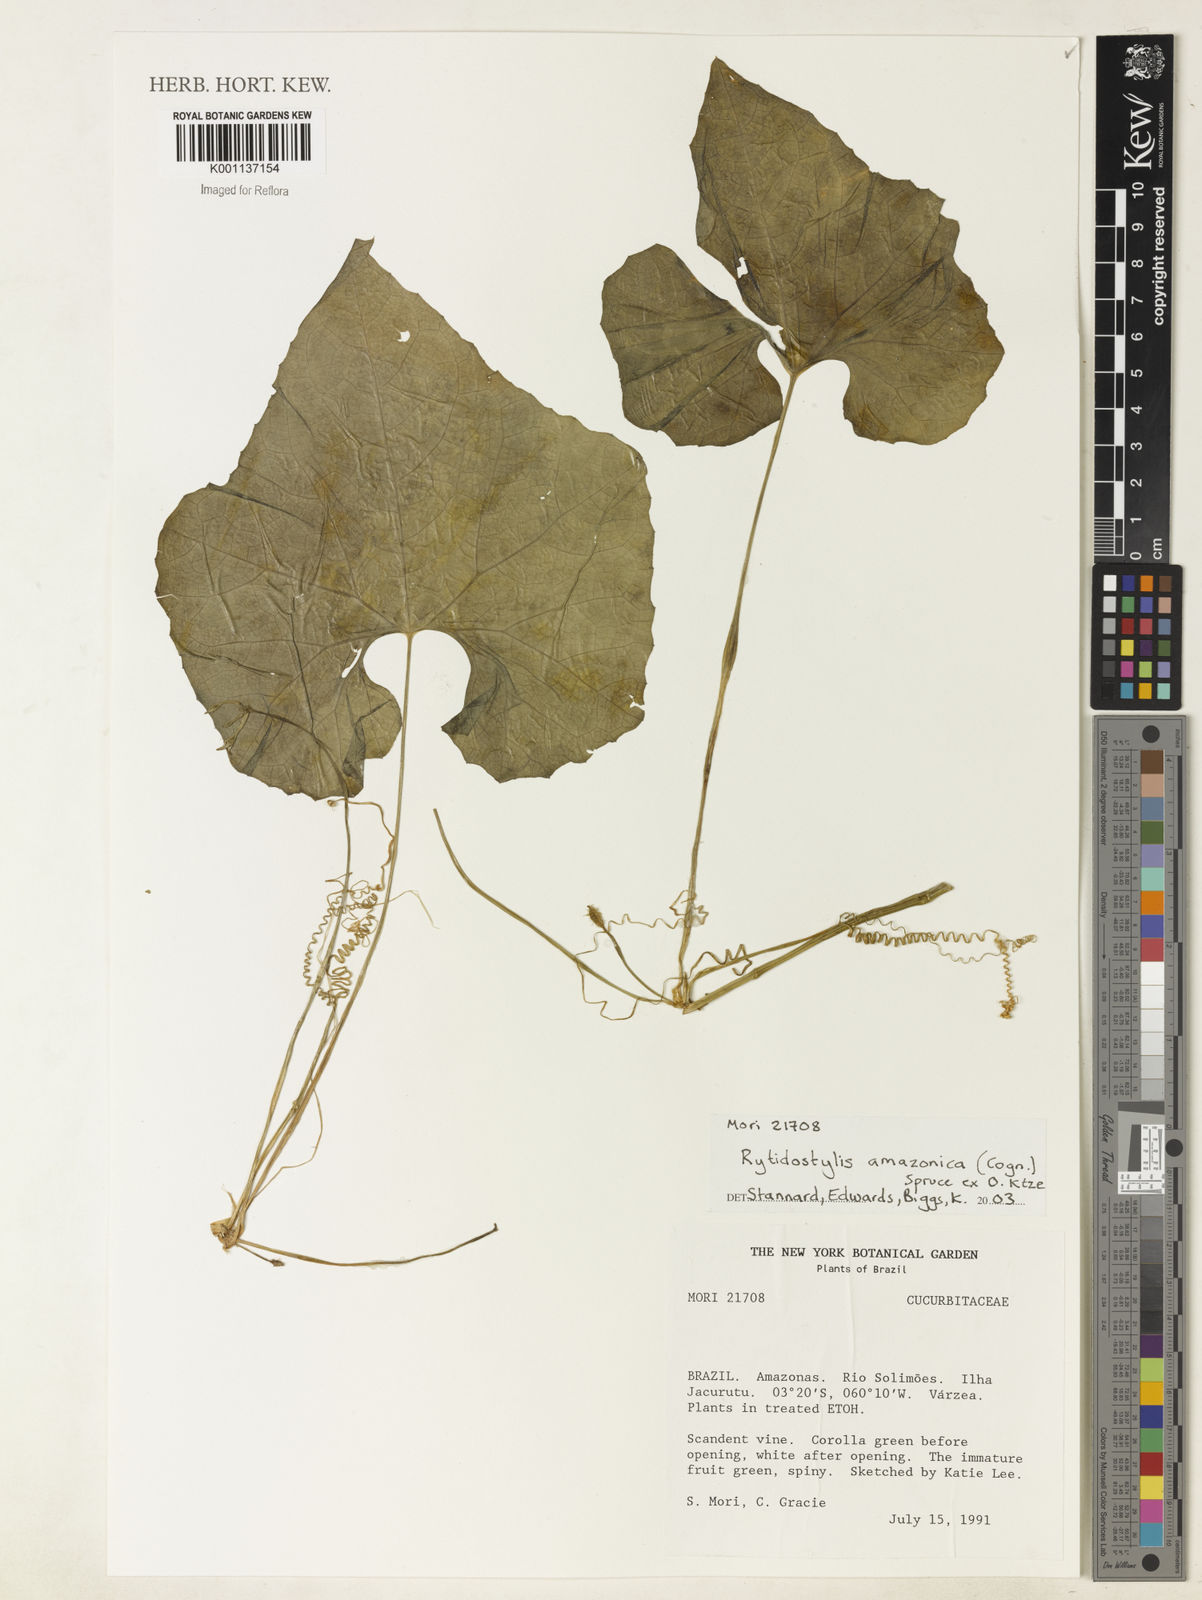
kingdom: Plantae
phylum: Tracheophyta
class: Magnoliopsida
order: Cucurbitales
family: Cucurbitaceae
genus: Cyclanthera
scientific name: Cyclanthera carthagenensis
